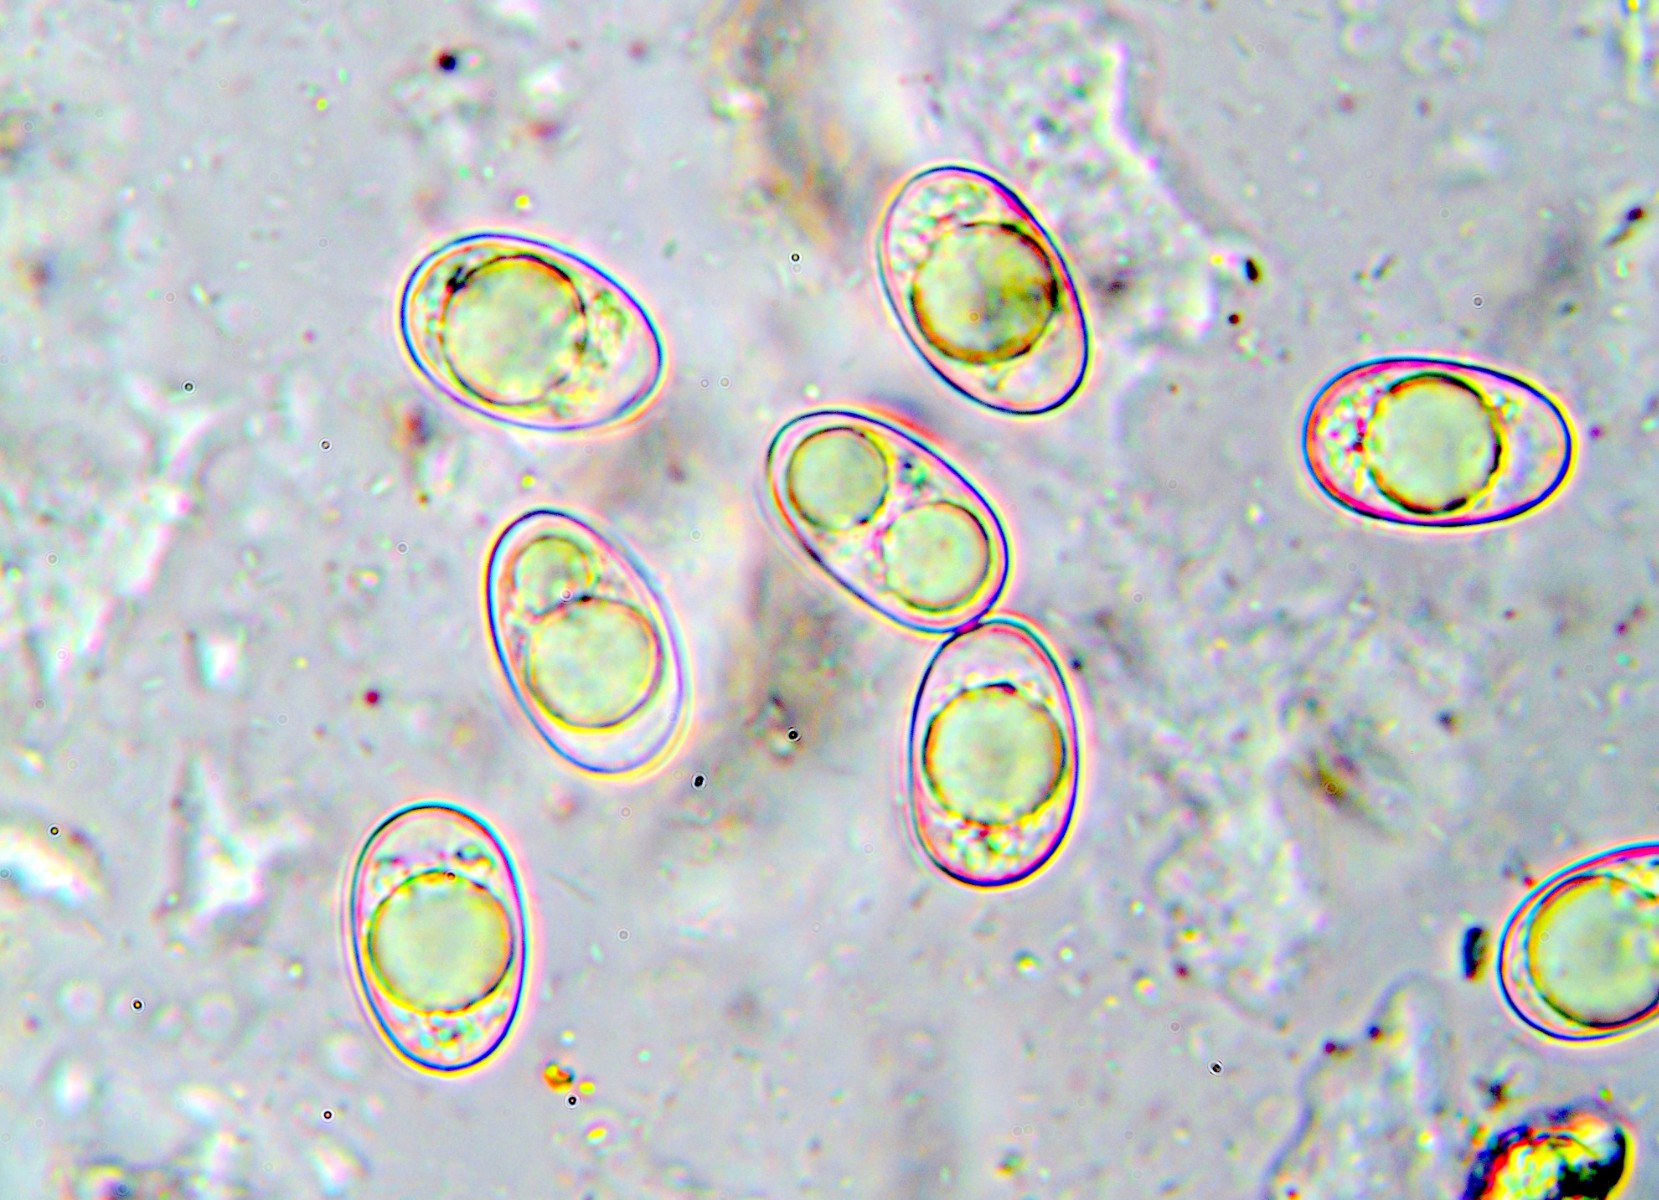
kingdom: Fungi
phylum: Ascomycota
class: Pezizomycetes
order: Pezizales
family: Pyronemataceae
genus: Octospora
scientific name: Octospora humosa
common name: Hotlips
